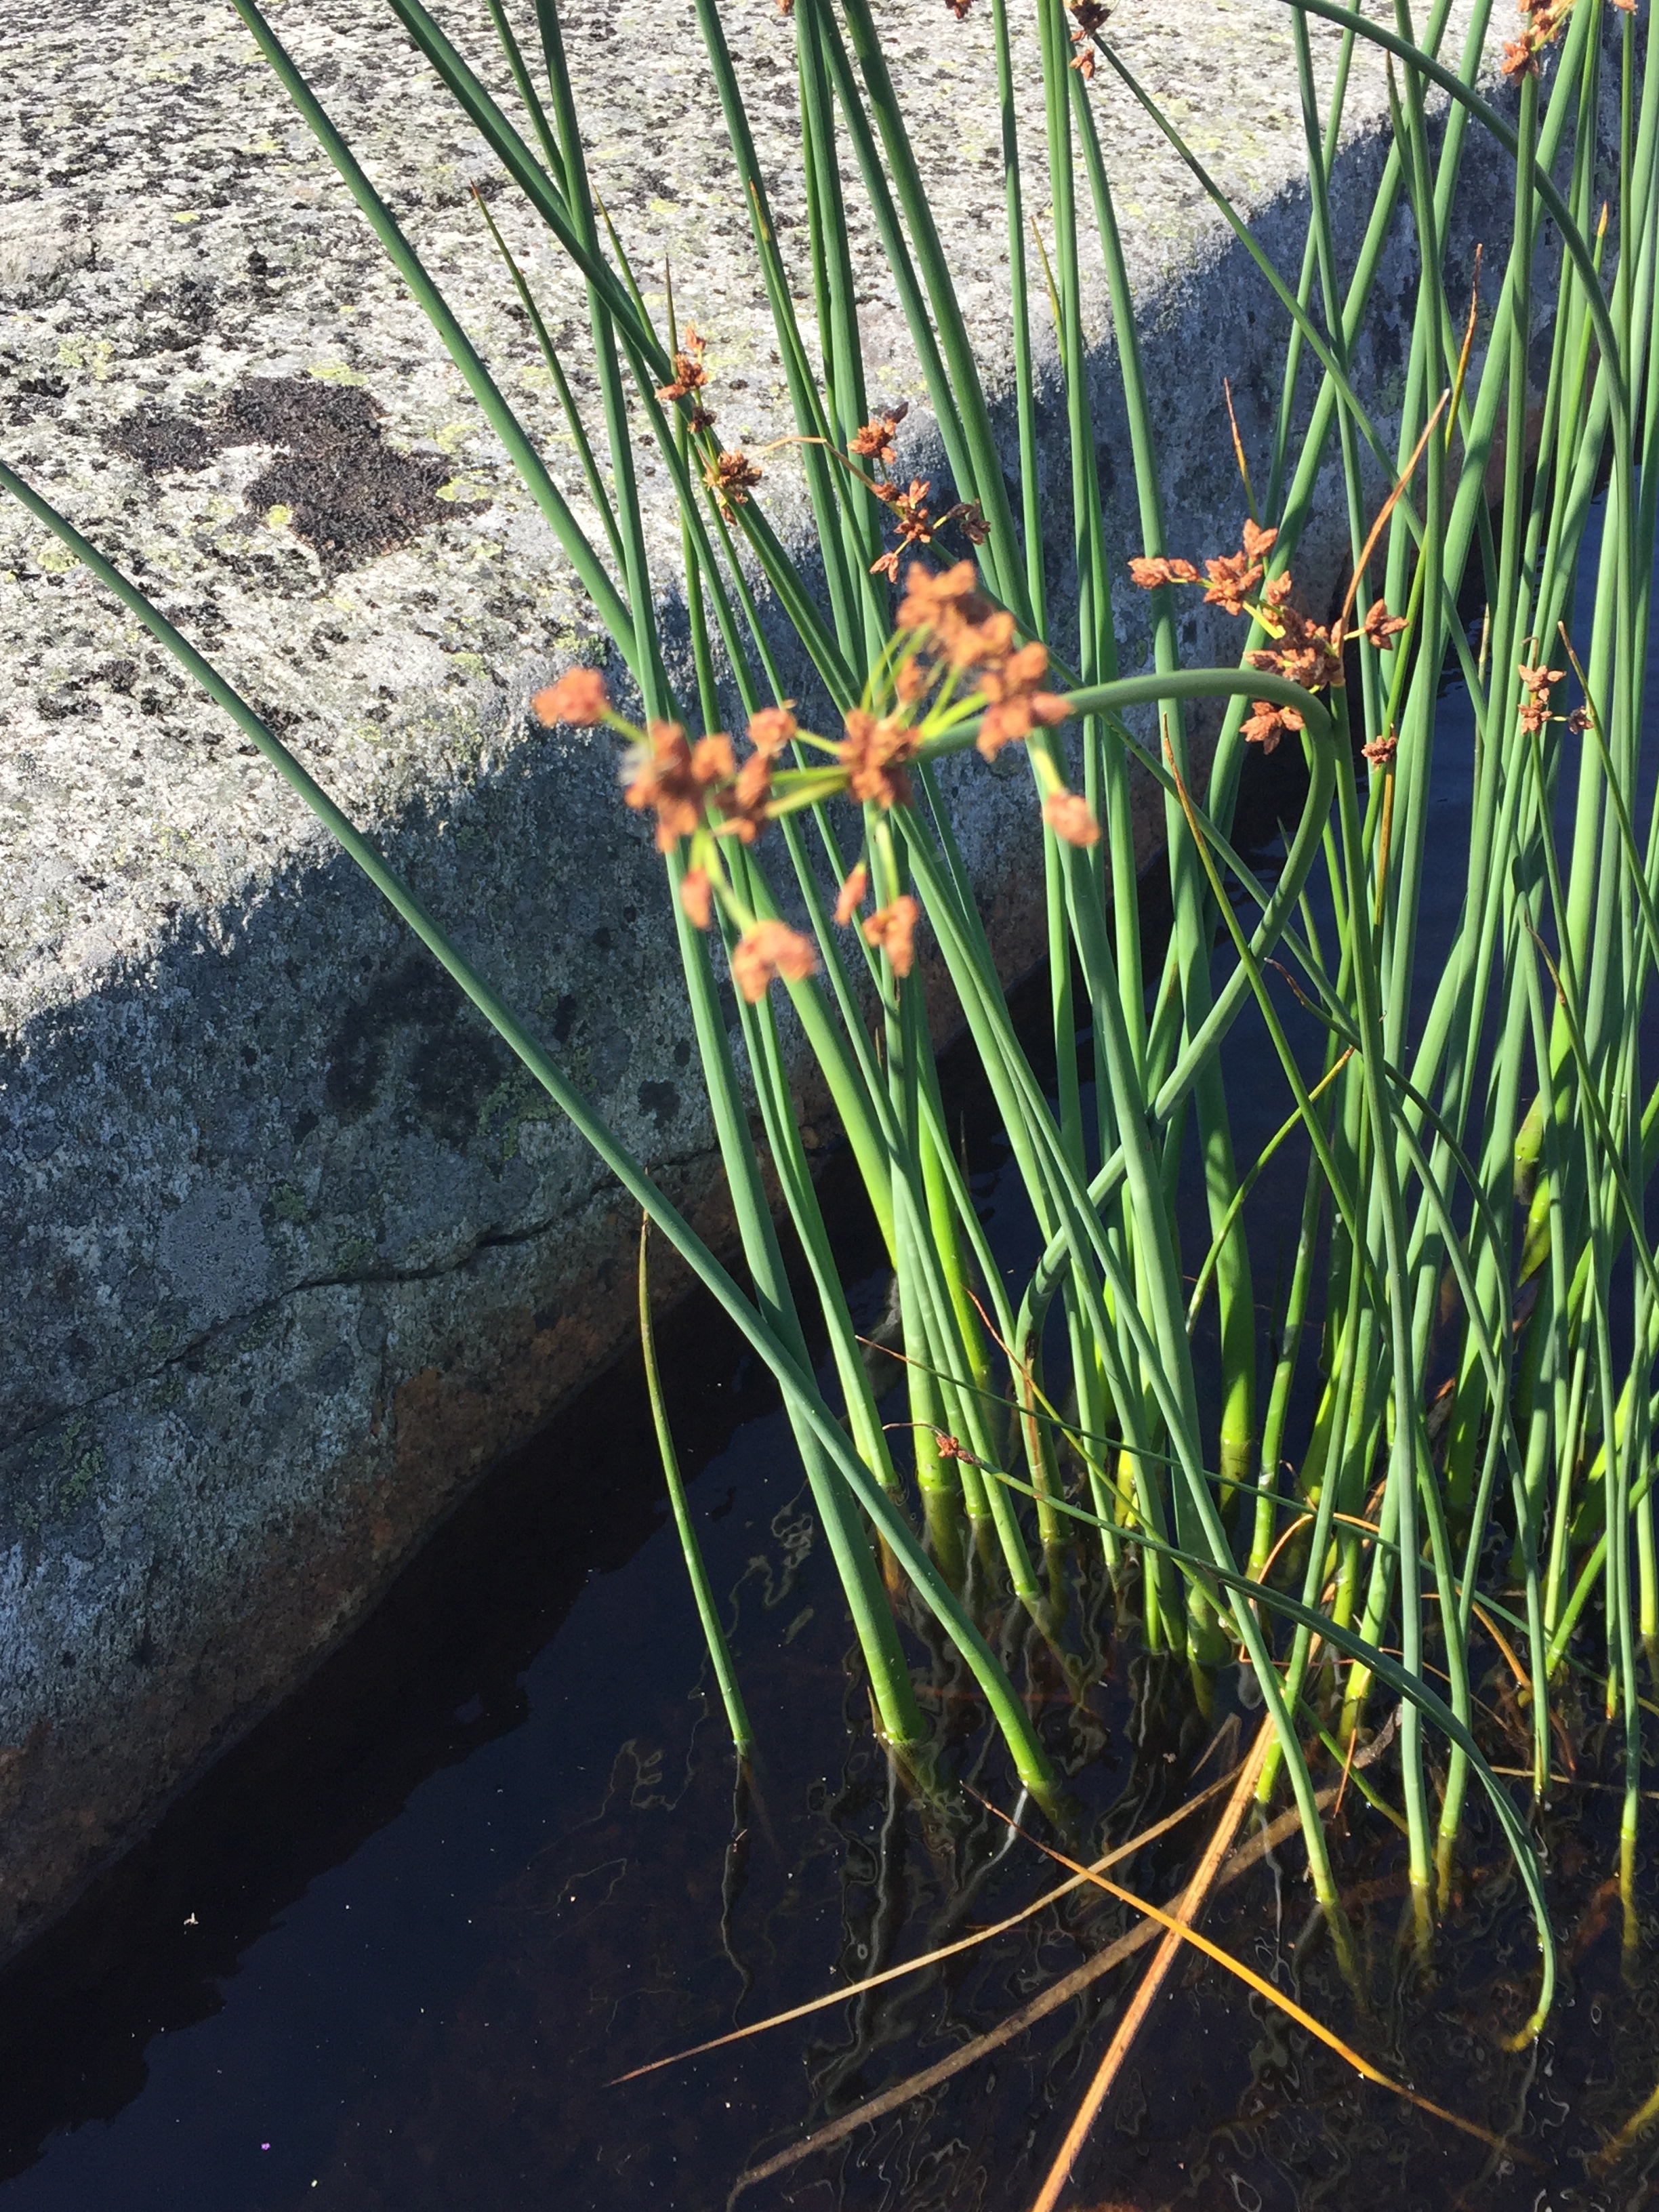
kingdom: Plantae
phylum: Tracheophyta
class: Liliopsida
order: Poales
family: Cyperaceae
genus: Eleocharis
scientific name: Eleocharis palustris
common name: Common spike-rush
